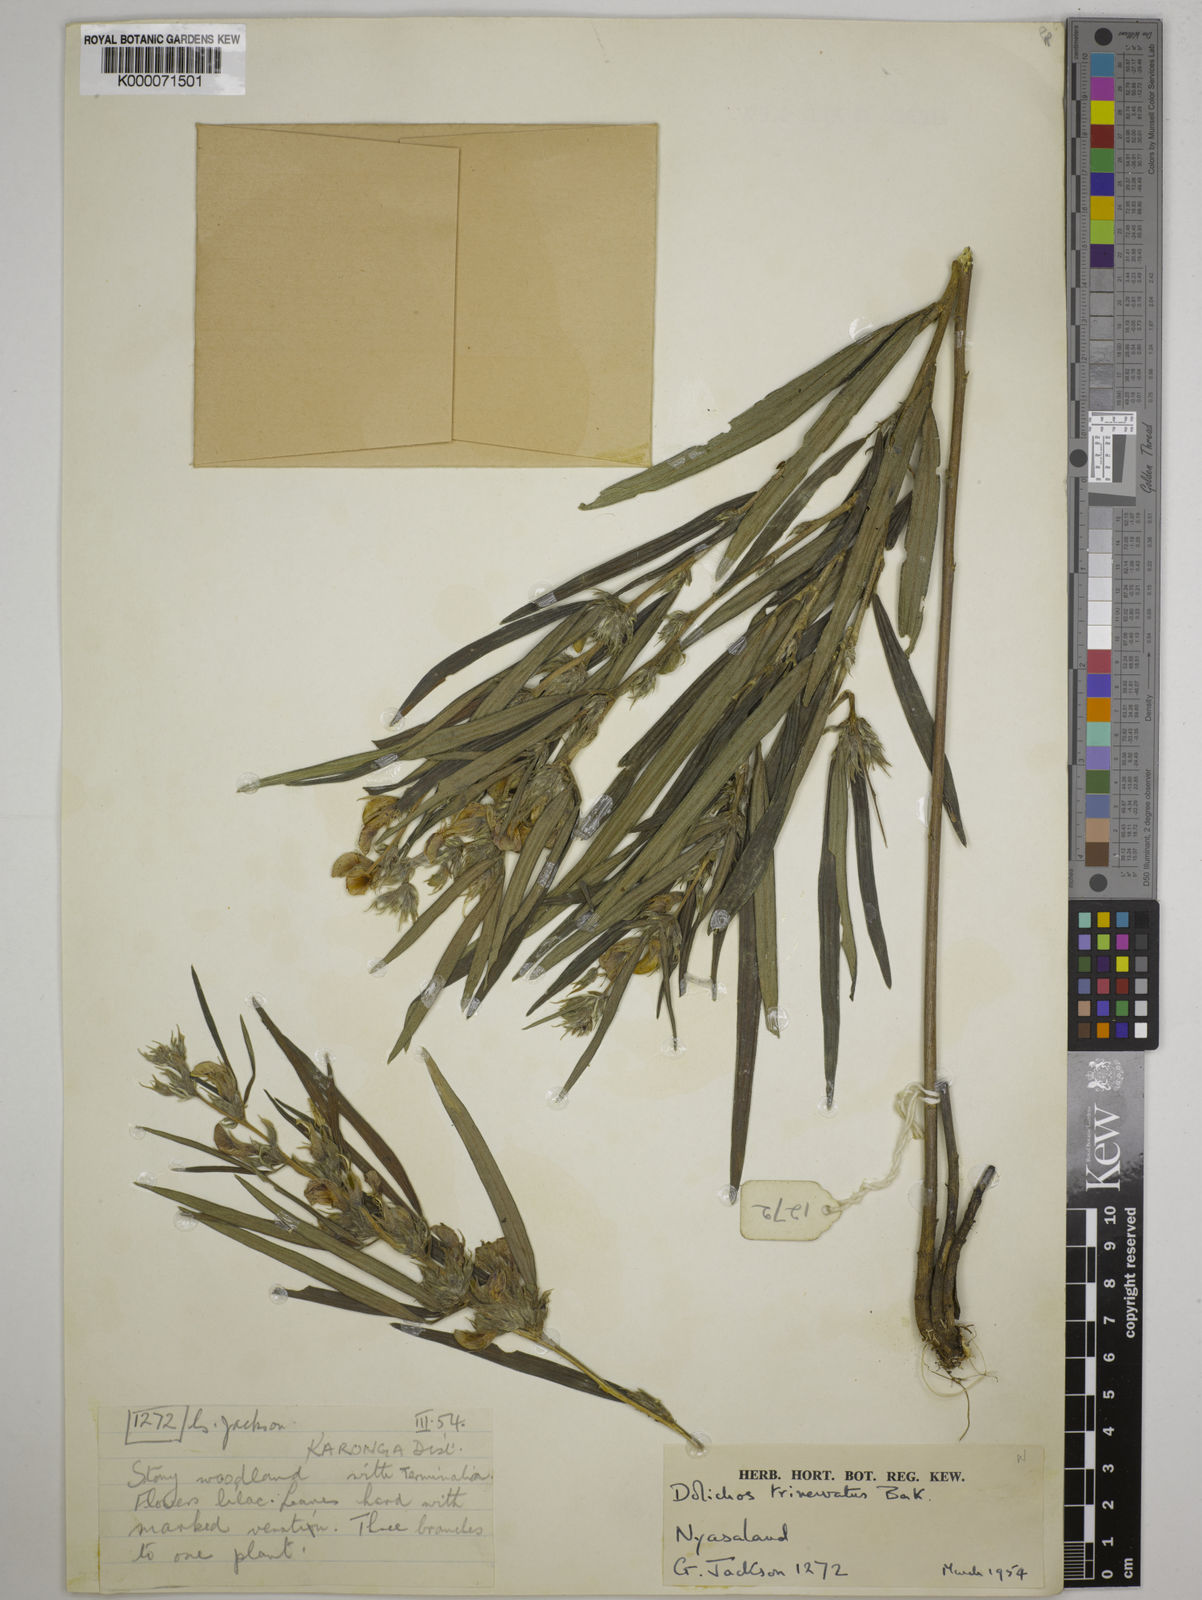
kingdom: Plantae
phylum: Tracheophyta
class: Magnoliopsida
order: Fabales
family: Fabaceae
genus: Dolichos
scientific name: Dolichos trinervatus
